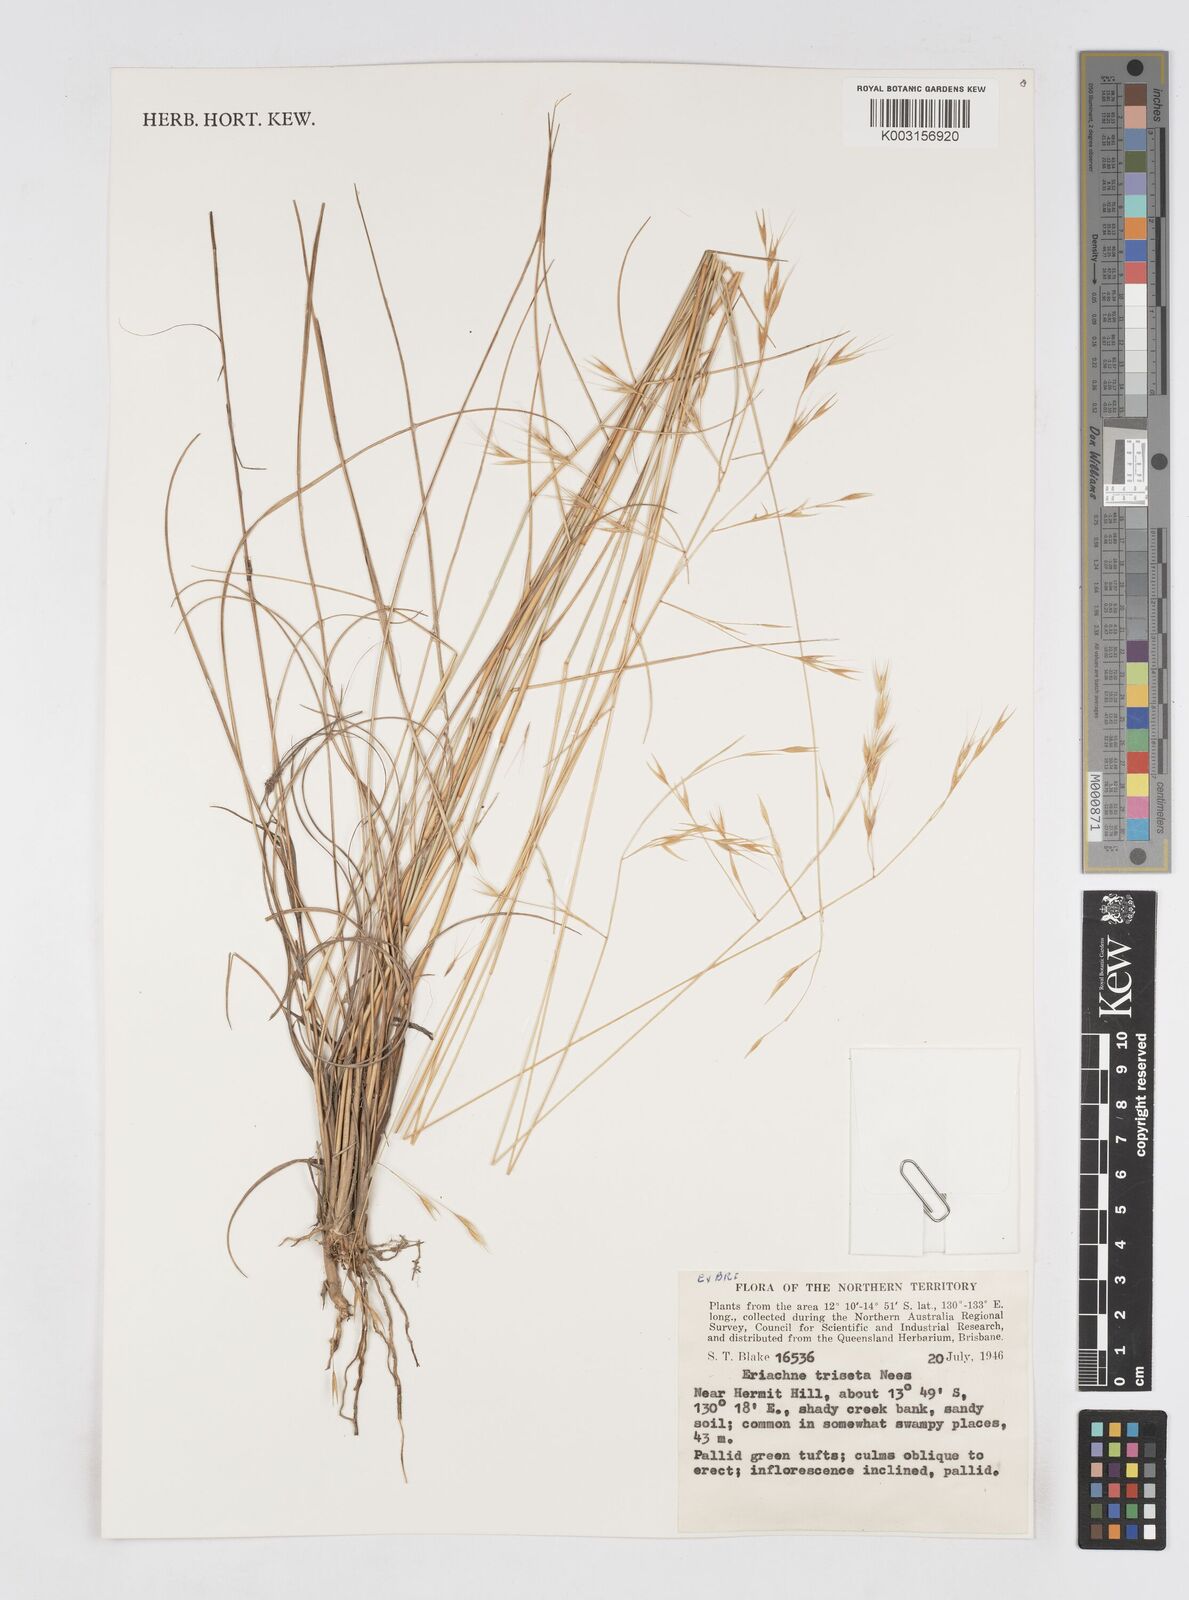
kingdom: Plantae
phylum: Tracheophyta
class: Liliopsida
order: Poales
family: Poaceae
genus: Eriachne
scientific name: Eriachne triseta
